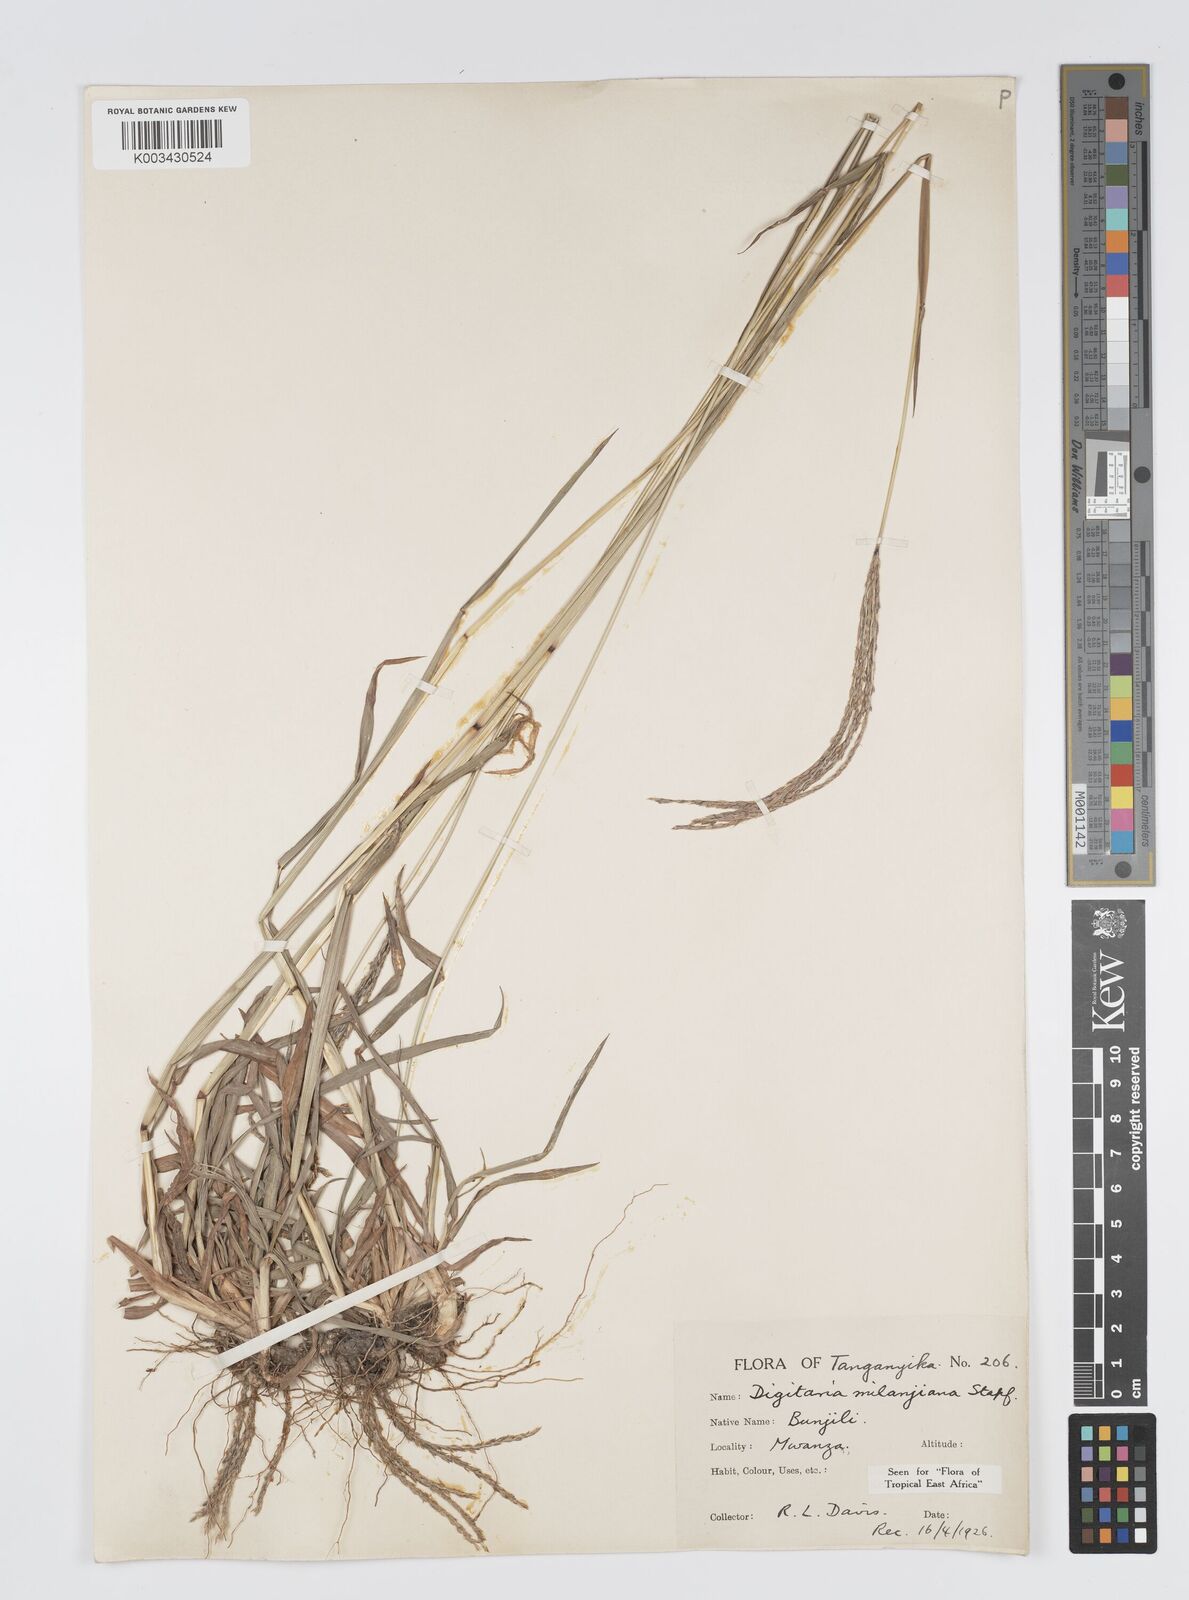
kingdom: Plantae
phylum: Tracheophyta
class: Liliopsida
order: Poales
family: Poaceae
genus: Digitaria
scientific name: Digitaria milanjiana
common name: Madagascar crabgrass
